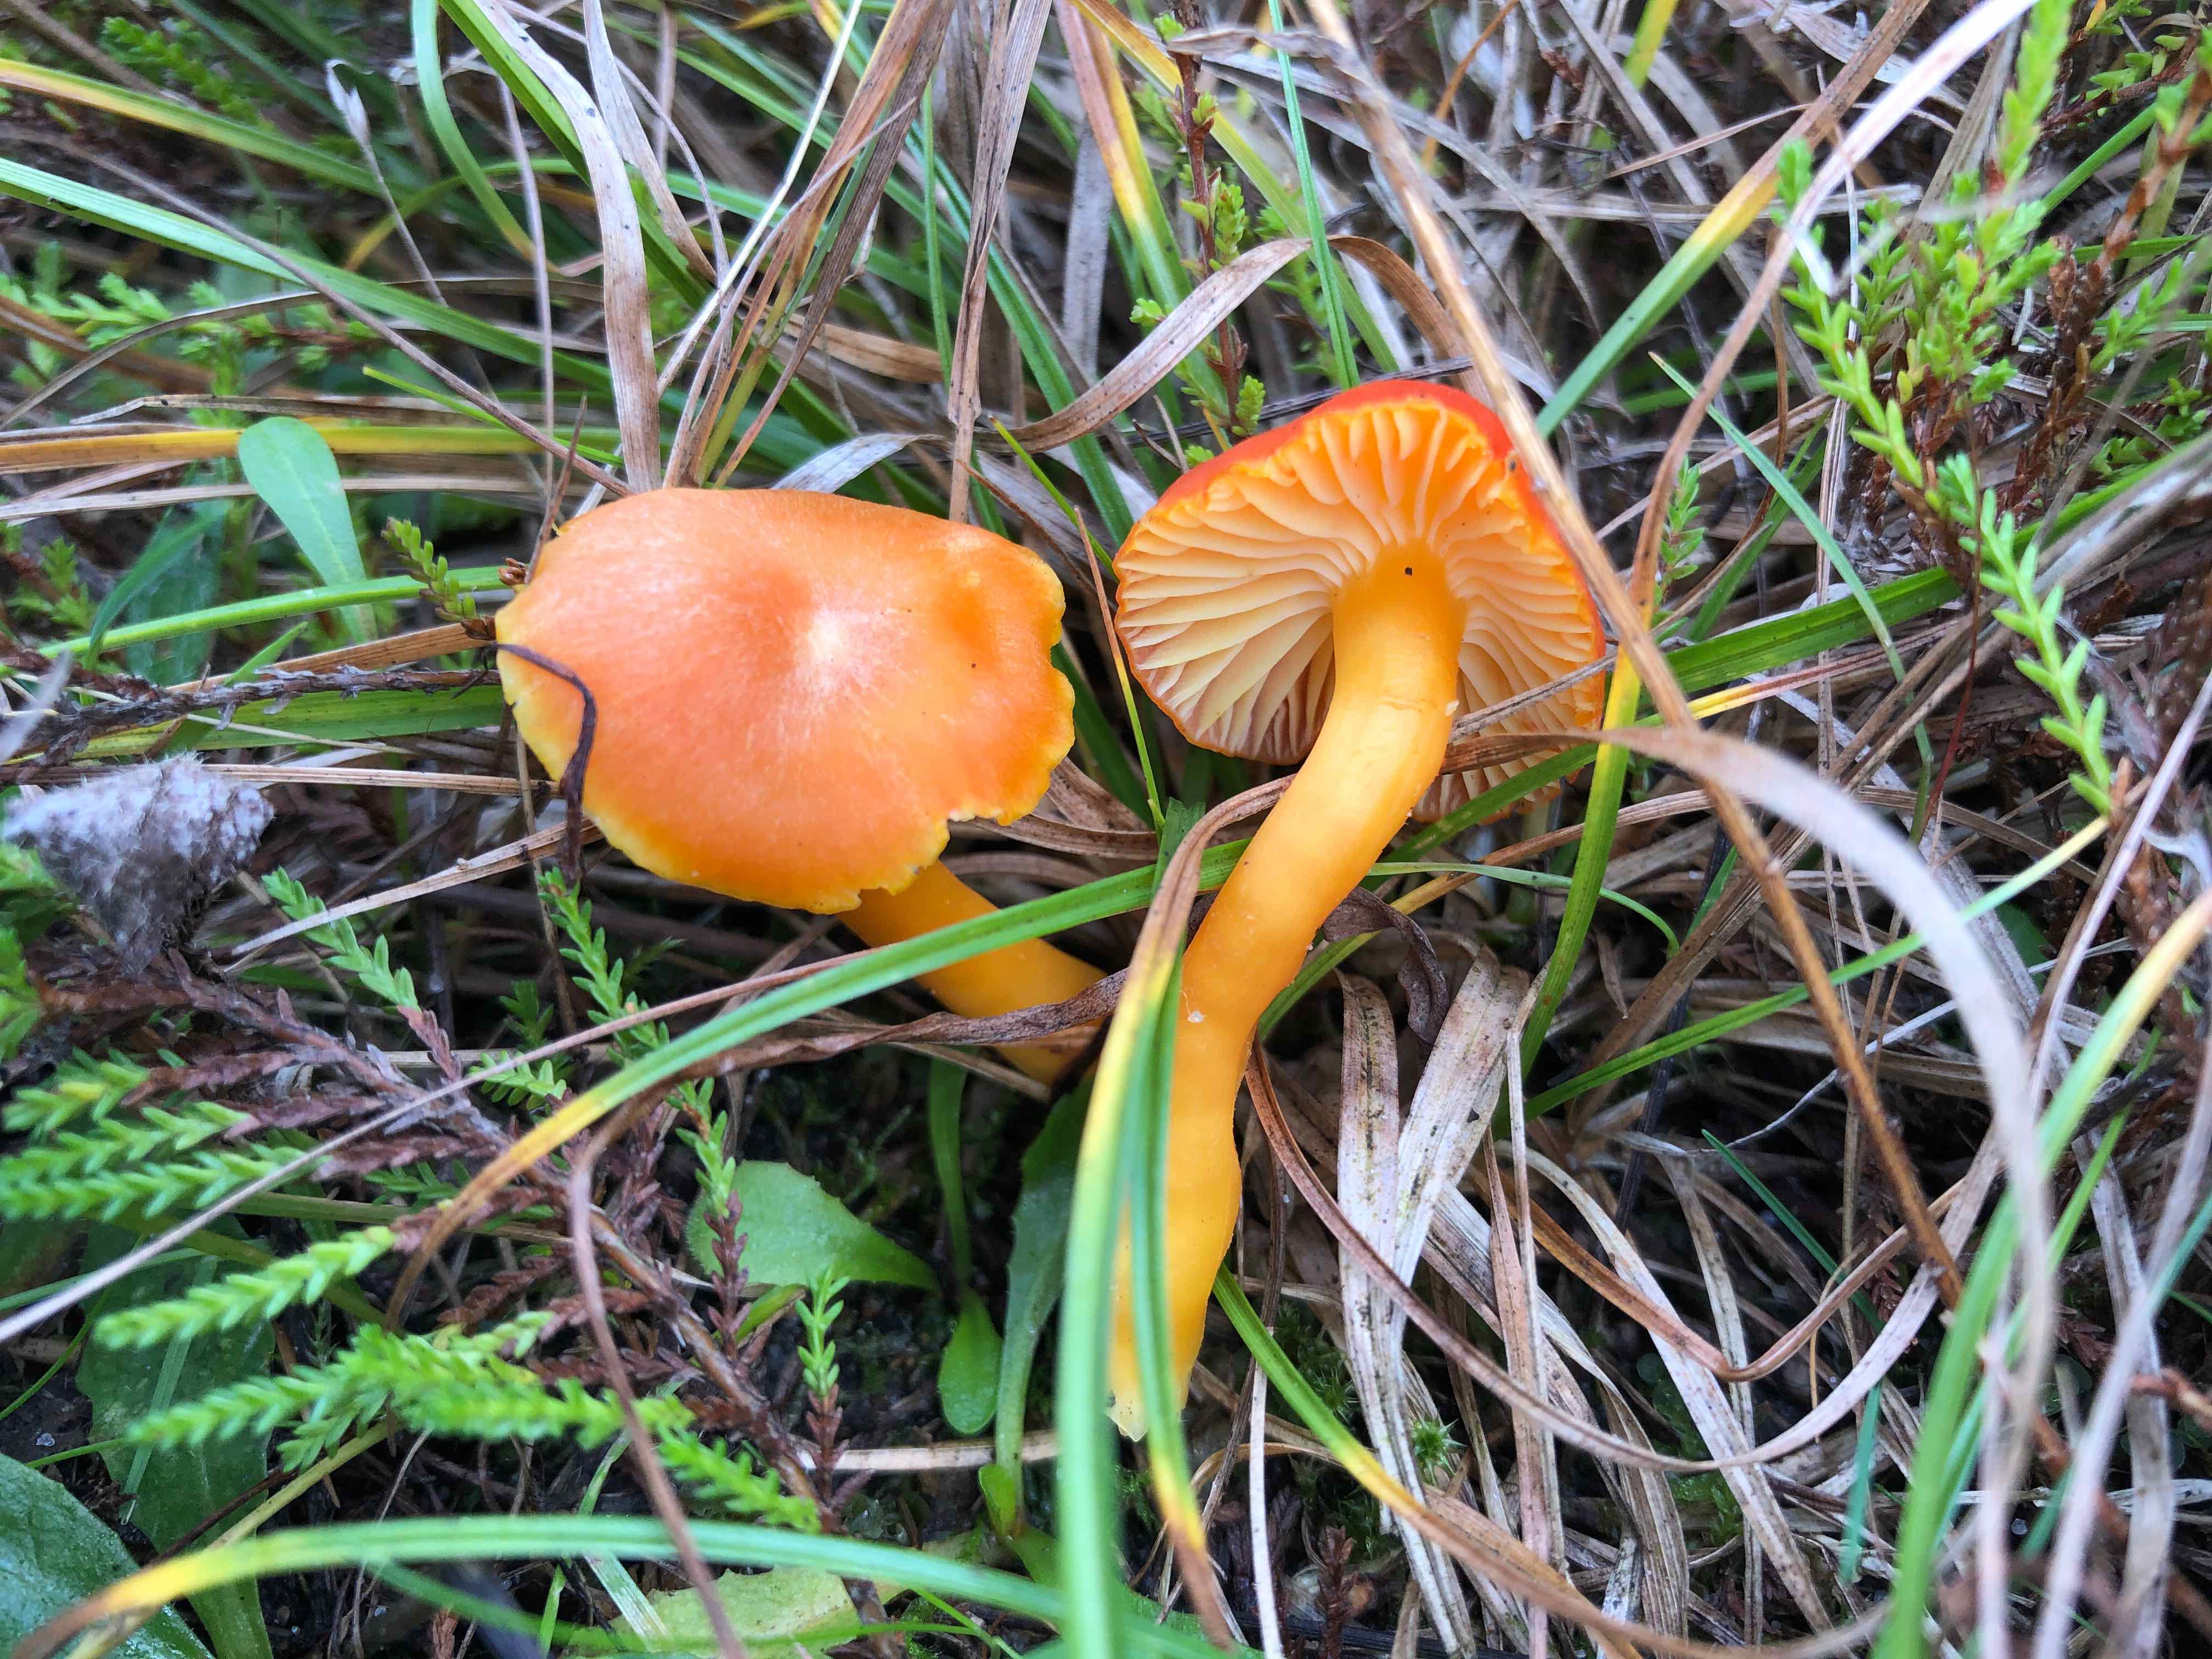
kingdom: Fungi
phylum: Basidiomycota
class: Agaricomycetes
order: Agaricales
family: Hygrophoraceae
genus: Hygrocybe
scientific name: Hygrocybe reidii
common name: honning-vokshat
